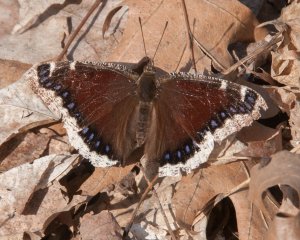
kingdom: Animalia
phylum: Arthropoda
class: Insecta
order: Lepidoptera
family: Nymphalidae
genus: Nymphalis
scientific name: Nymphalis antiopa
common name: Mourning Cloak
